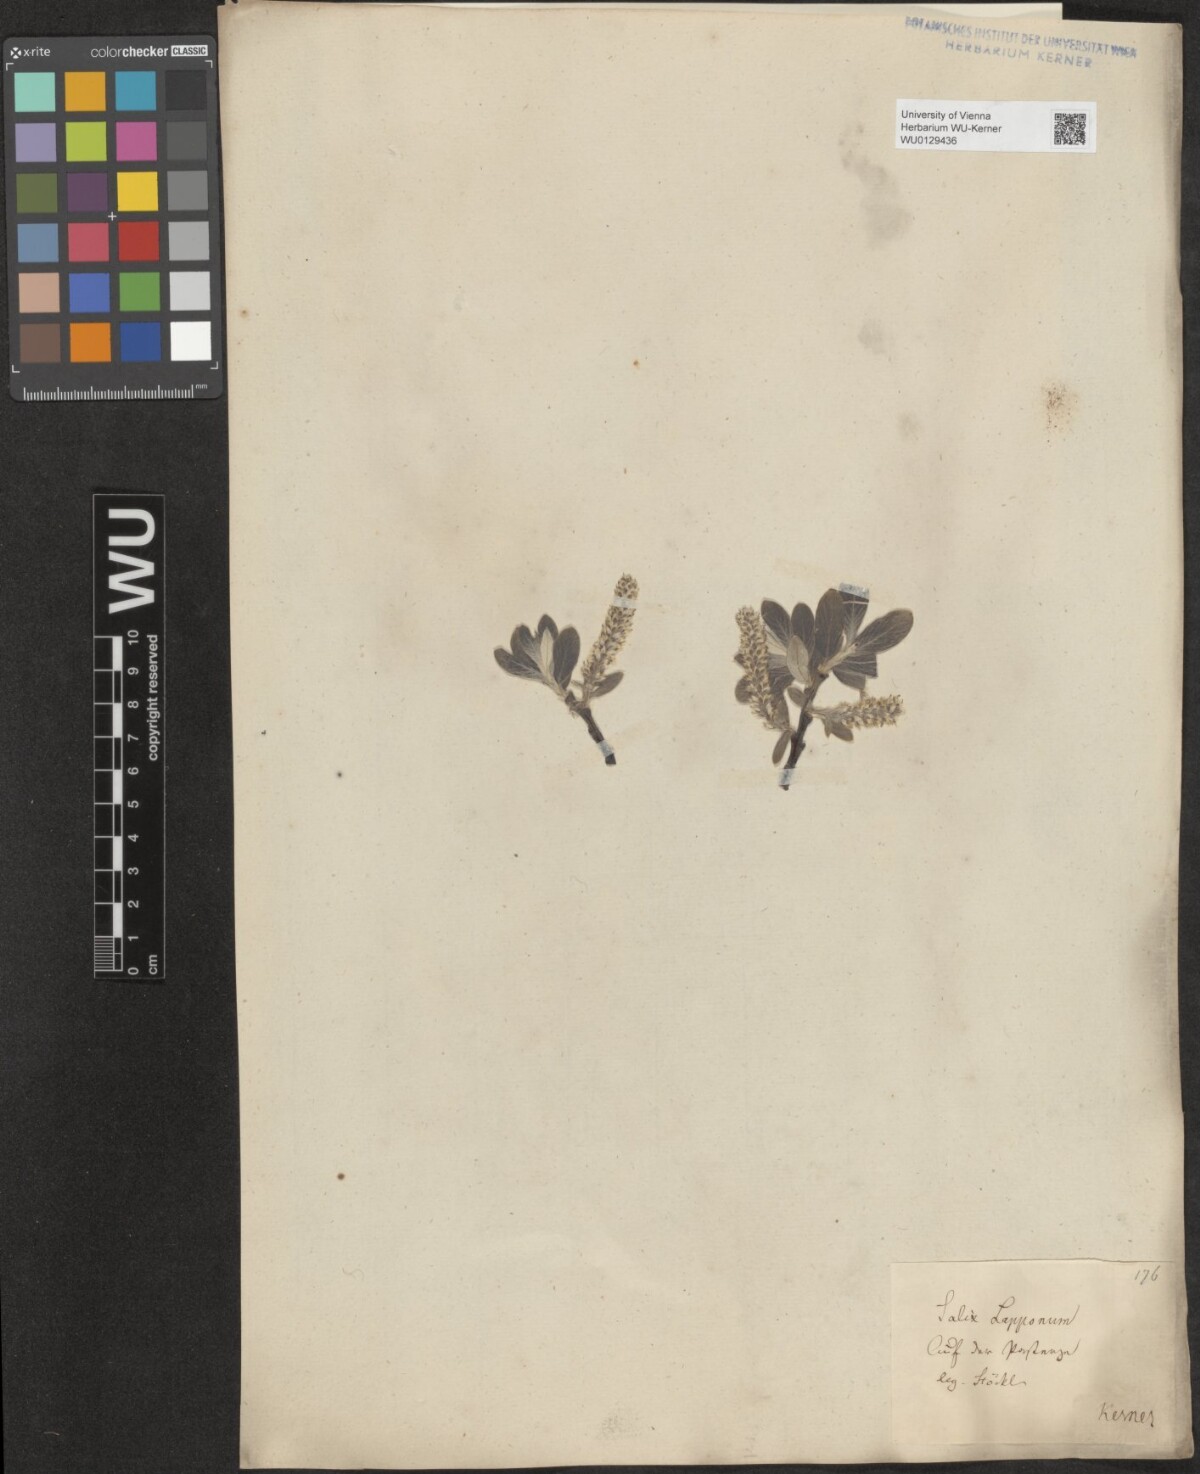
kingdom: Plantae
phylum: Tracheophyta
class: Magnoliopsida
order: Malpighiales
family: Salicaceae
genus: Salix
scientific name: Salix helvetica
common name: Swiss willow
